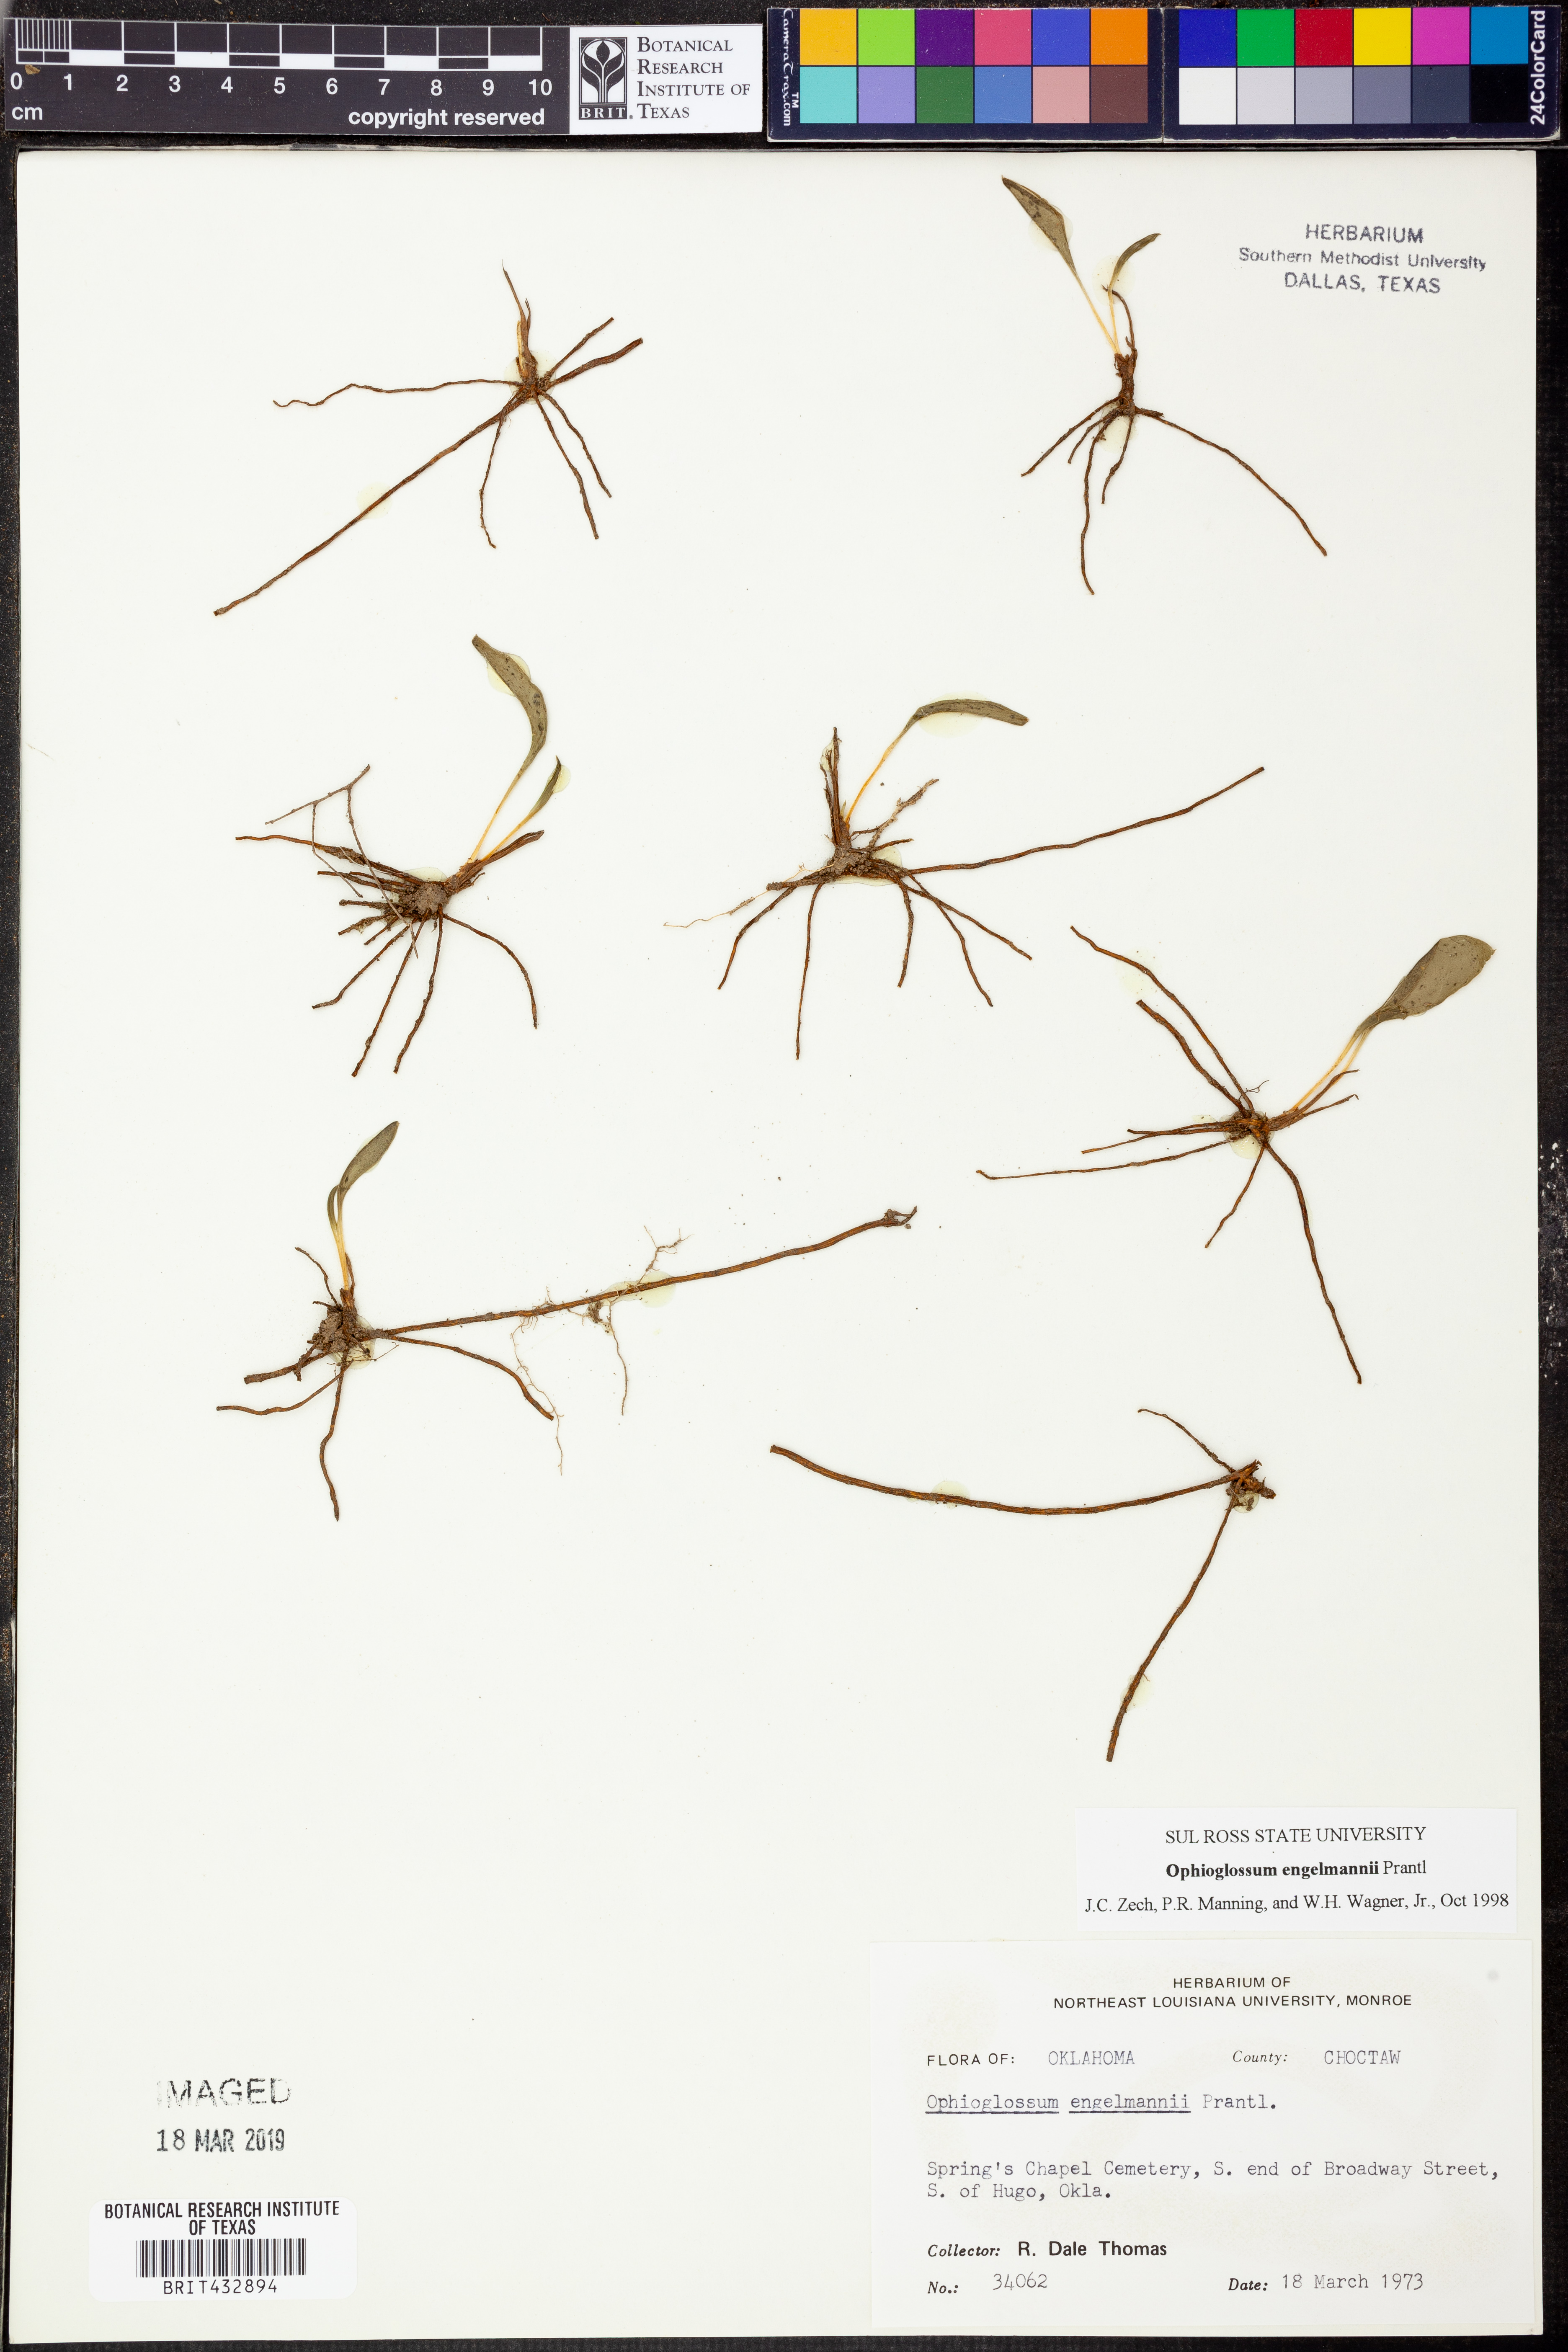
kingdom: Plantae
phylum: Tracheophyta
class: Polypodiopsida
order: Ophioglossales
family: Ophioglossaceae
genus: Ophioglossum
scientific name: Ophioglossum engelmannii
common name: Limestone adder's-tongue
